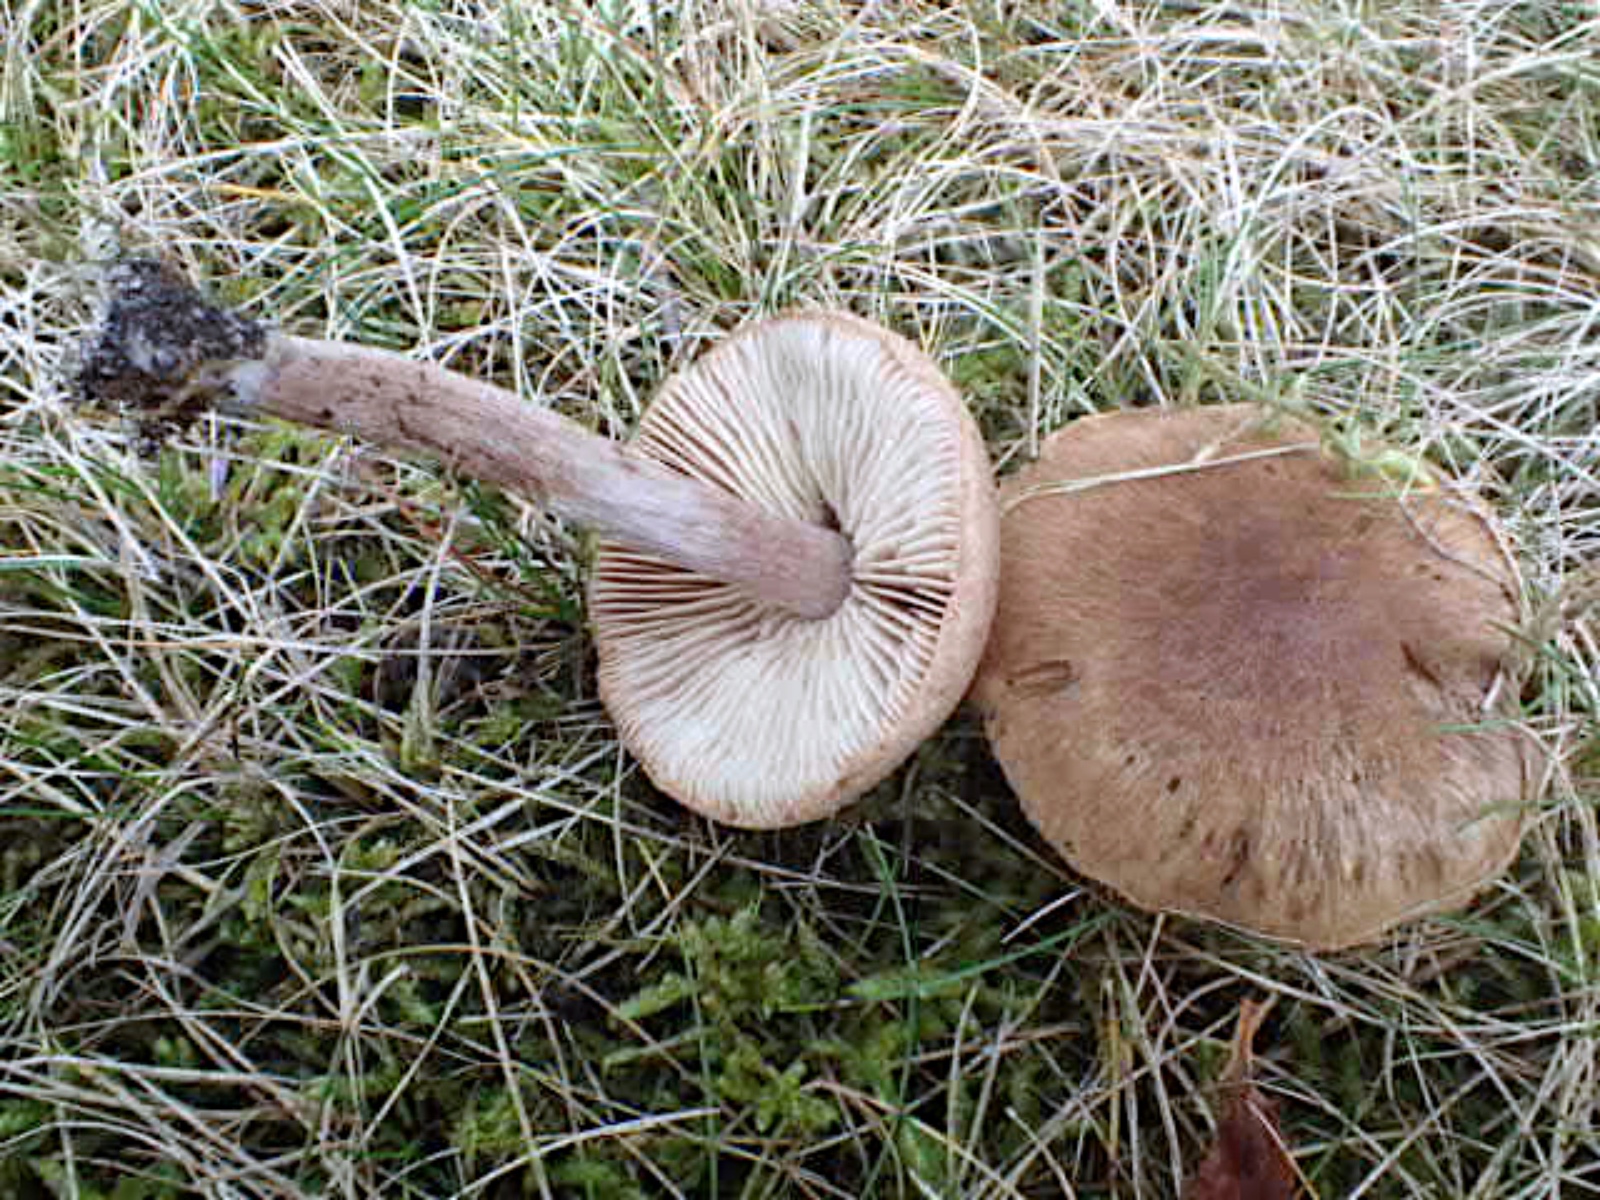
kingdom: Fungi
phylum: Basidiomycota
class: Agaricomycetes
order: Agaricales
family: Inocybaceae
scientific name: Inocybaceae
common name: trævlhatfamilien
